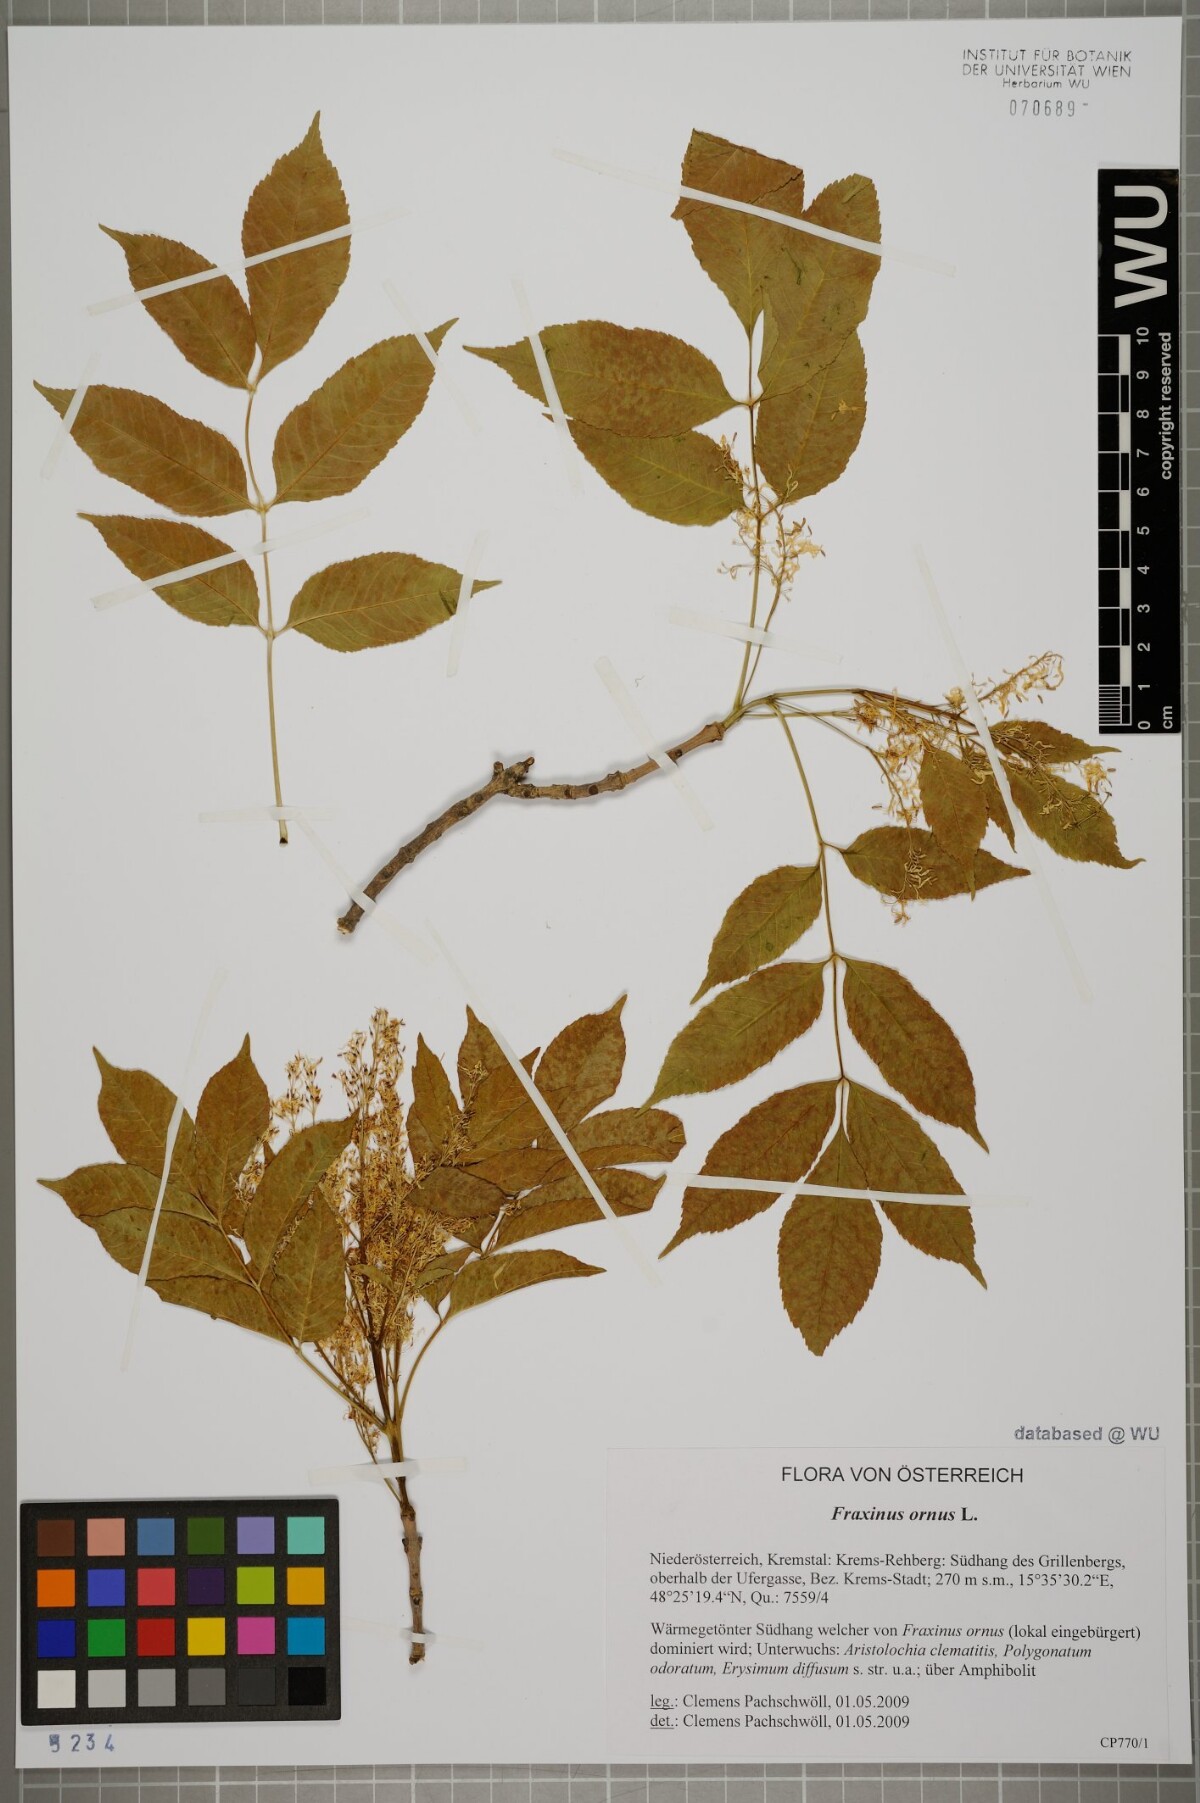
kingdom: Plantae
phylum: Tracheophyta
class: Magnoliopsida
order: Lamiales
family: Oleaceae
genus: Fraxinus
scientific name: Fraxinus ornus
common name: Manna ash
